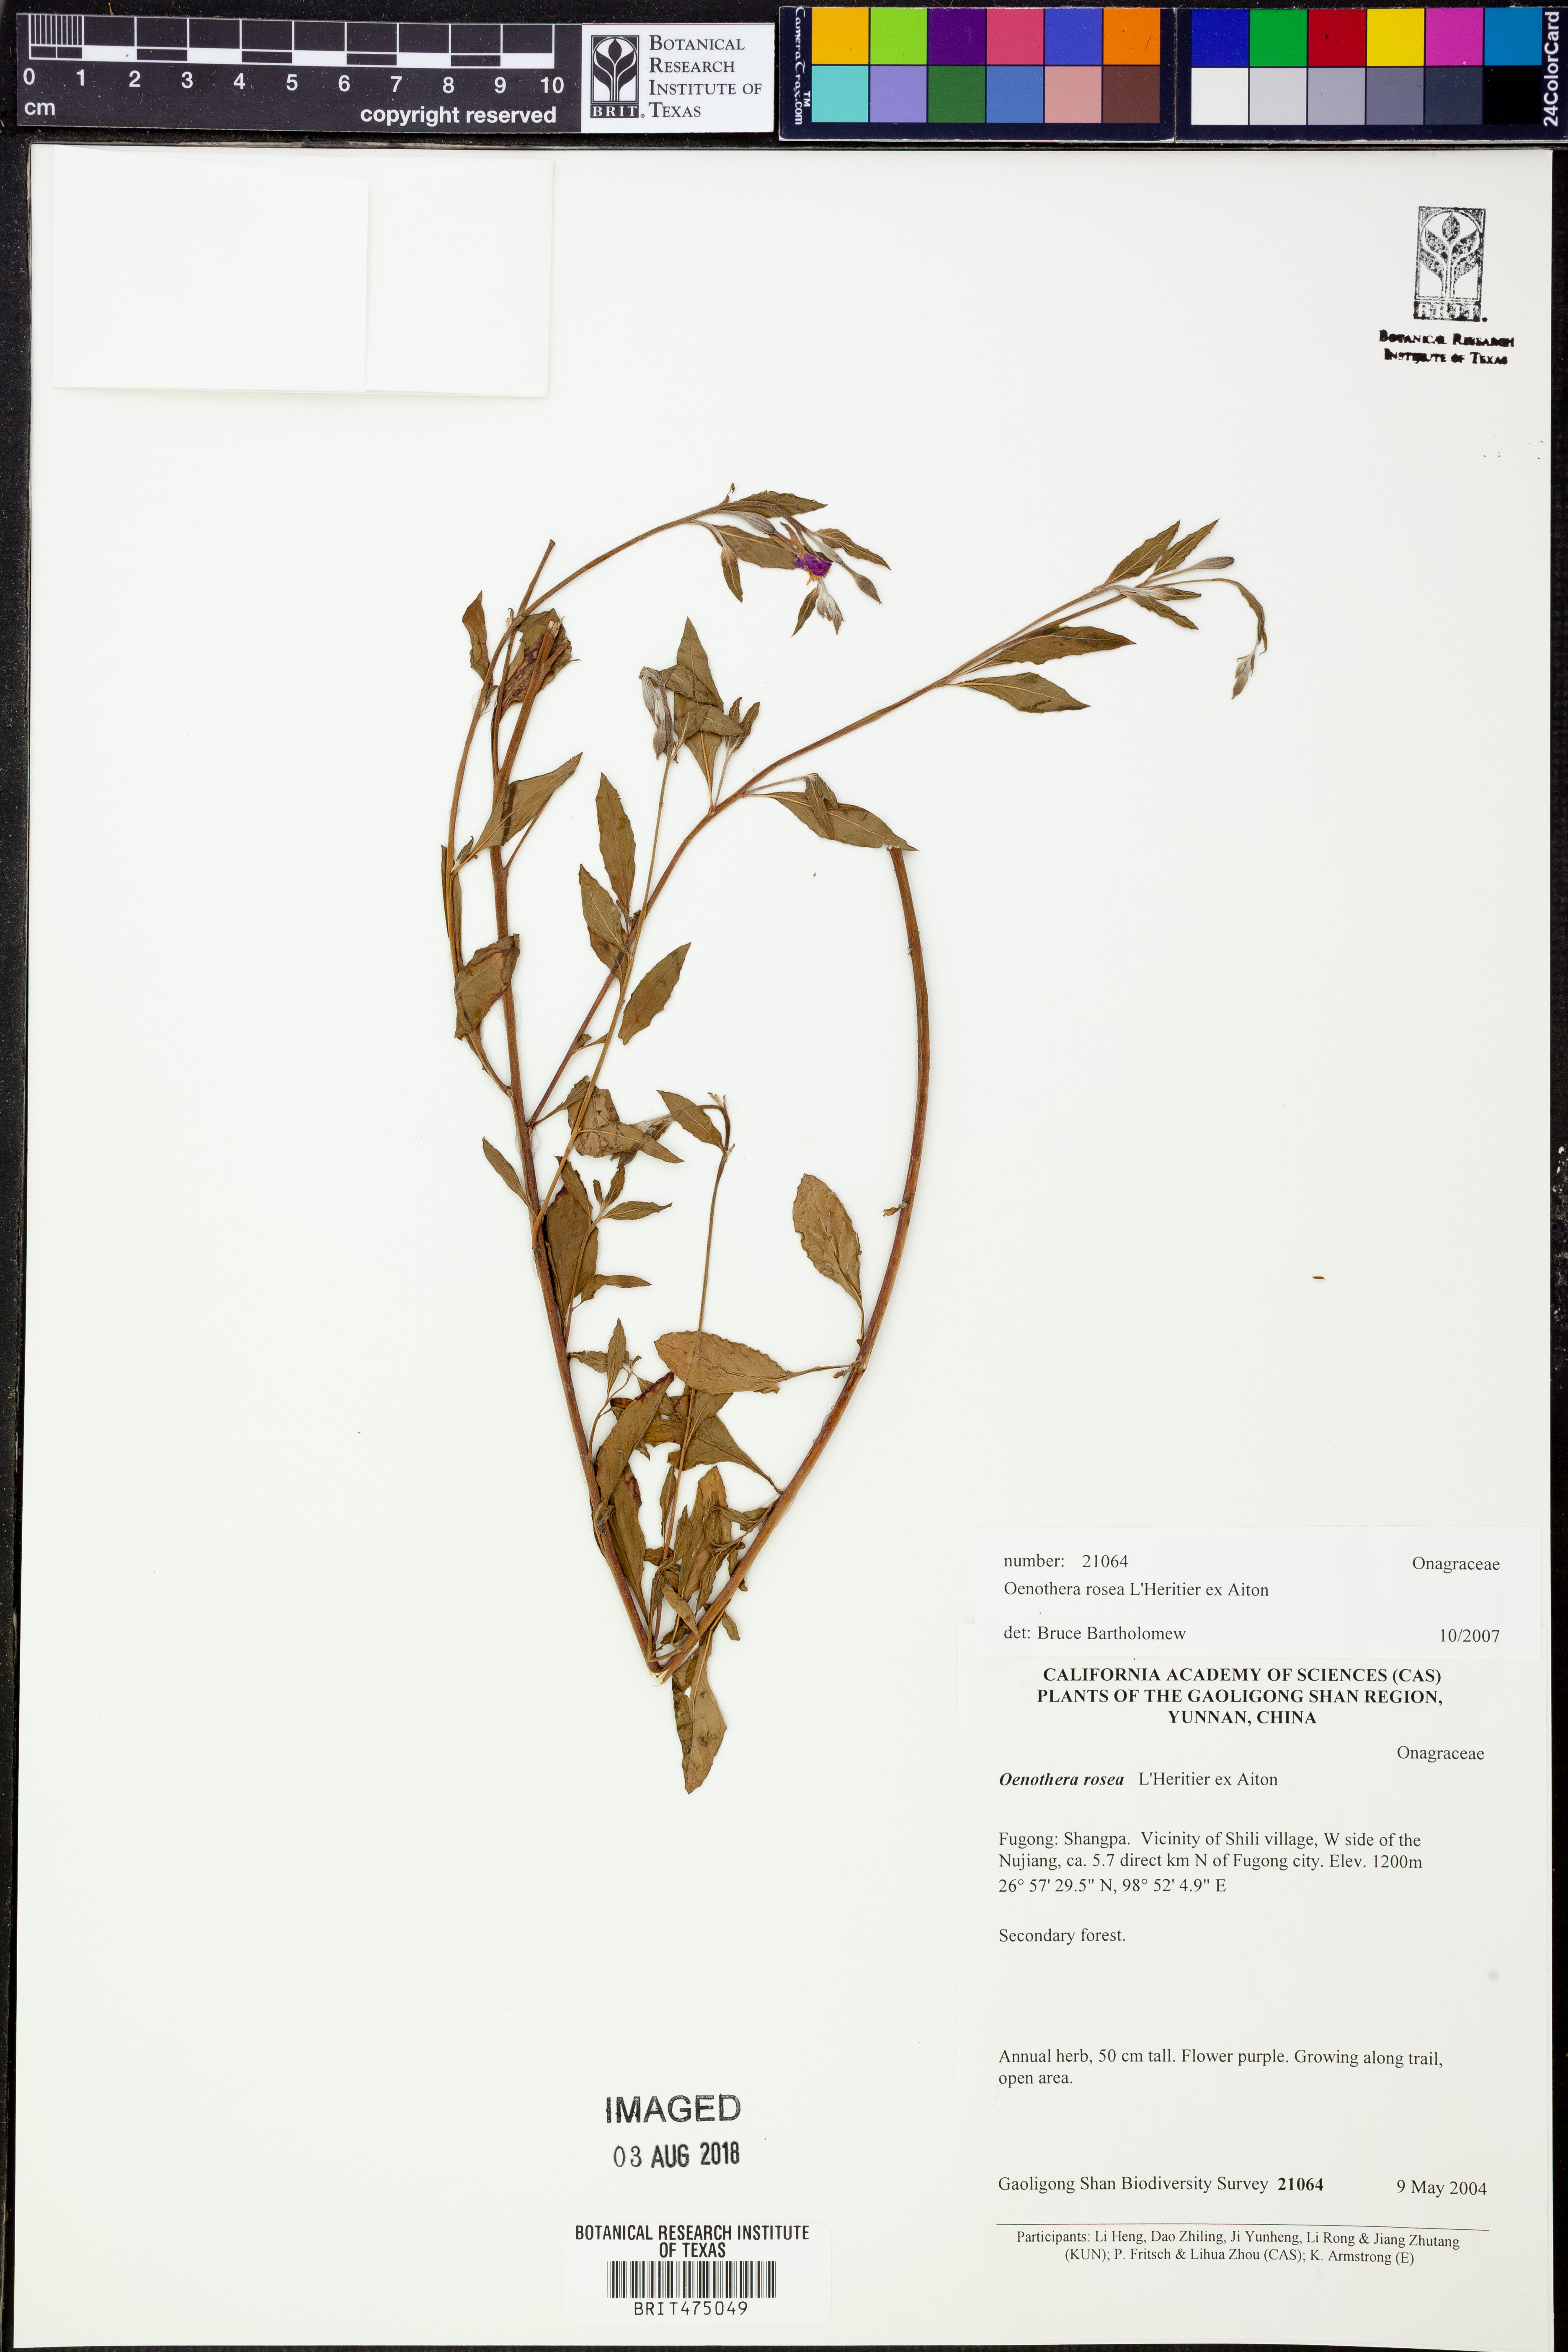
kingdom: Plantae
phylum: Tracheophyta
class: Magnoliopsida
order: Myrtales
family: Onagraceae
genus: Oenothera
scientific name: Oenothera rosea
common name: Rosy evening-primrose
